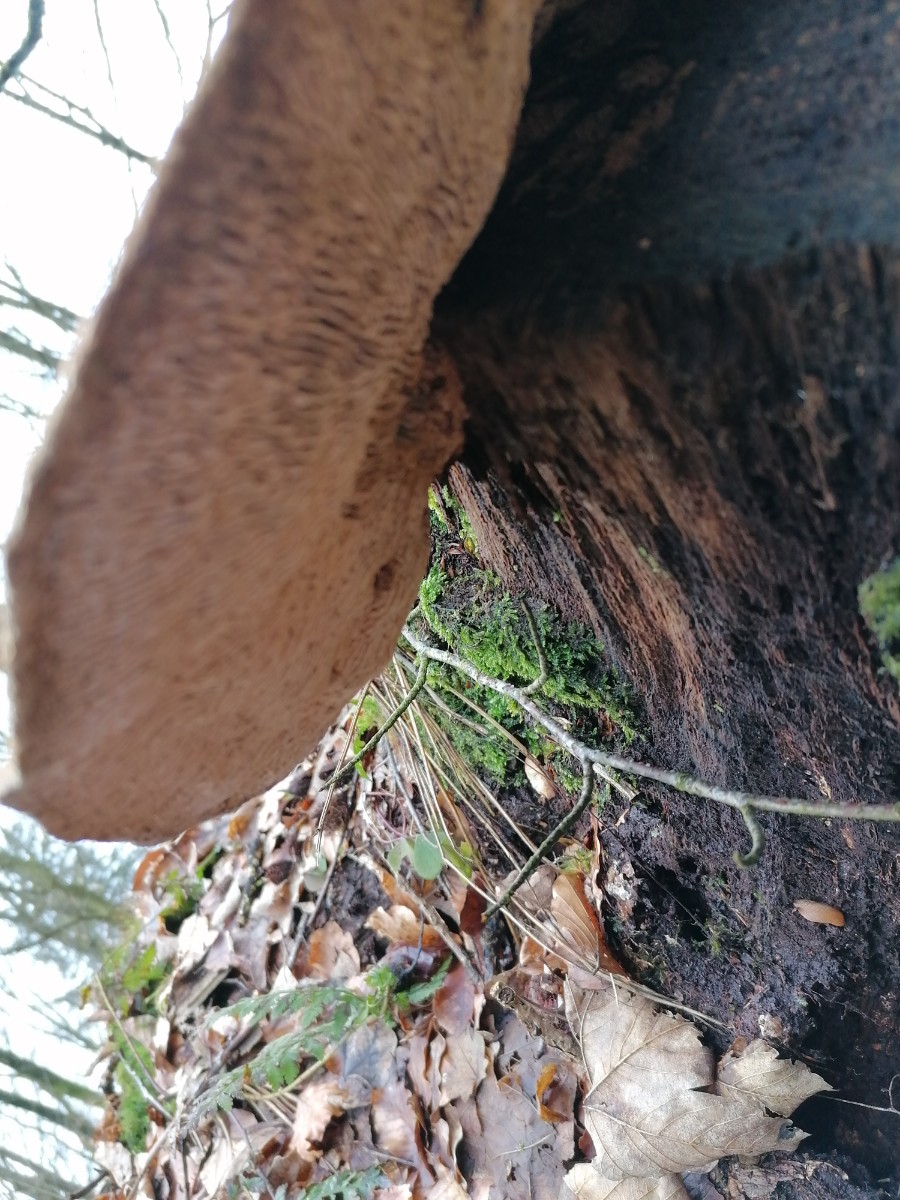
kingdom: Fungi
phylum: Basidiomycota
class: Agaricomycetes
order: Polyporales
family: Fomitopsidaceae
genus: Daedalea
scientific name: Daedalea quercina
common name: ege-labyrintsvamp
